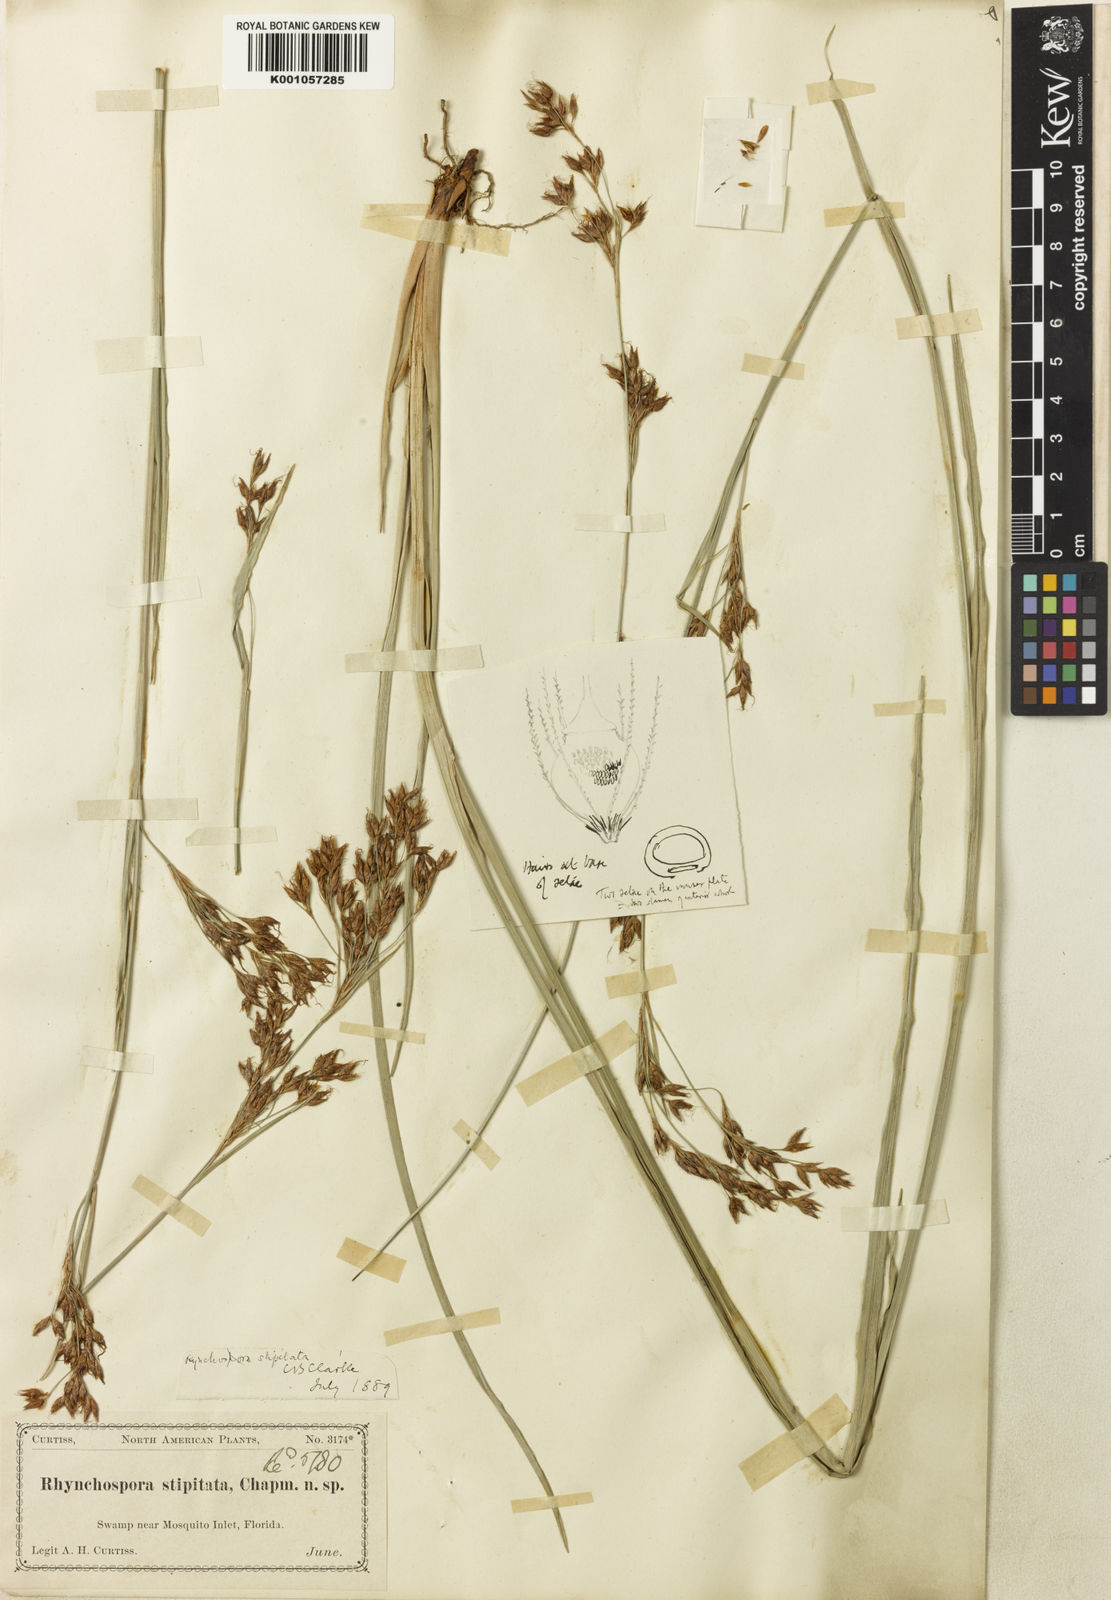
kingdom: Plantae
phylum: Tracheophyta
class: Liliopsida
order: Poales
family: Cyperaceae
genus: Rhynchospora
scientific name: Rhynchospora odorata
